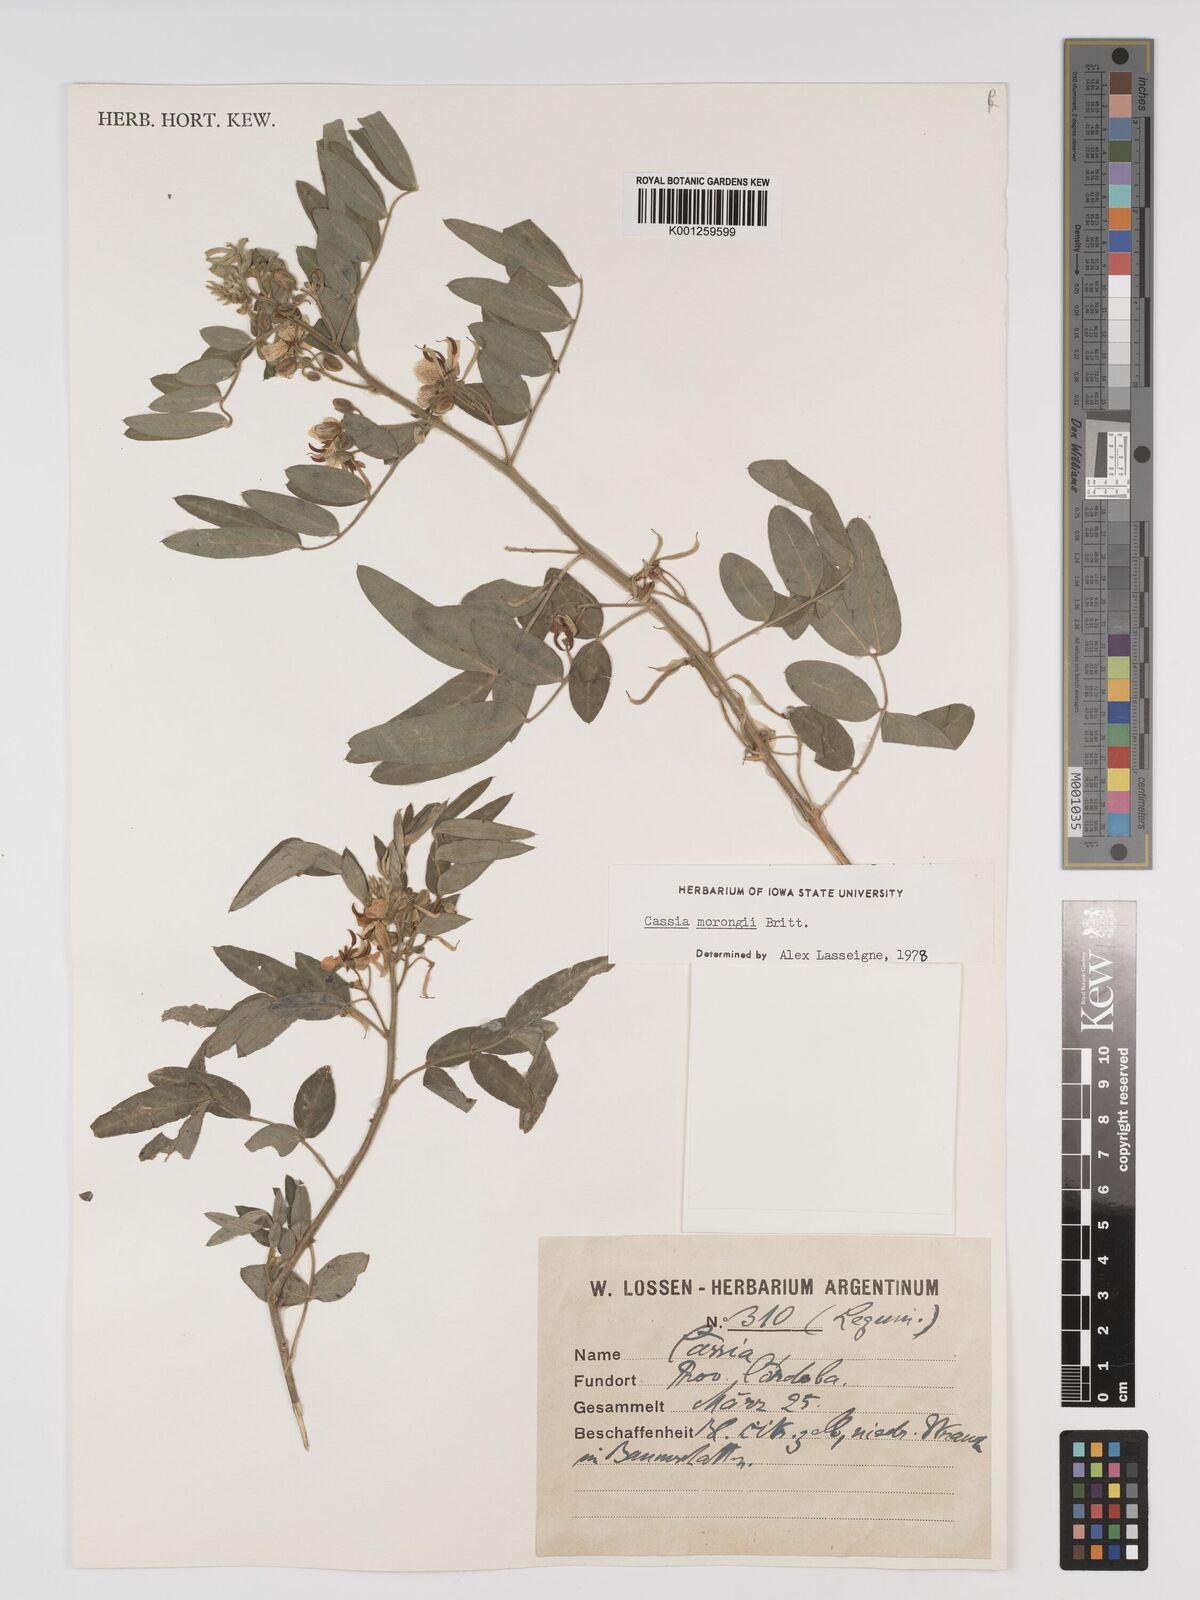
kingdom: Plantae
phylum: Tracheophyta
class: Magnoliopsida
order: Fabales
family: Fabaceae
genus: Senna
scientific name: Senna morongii
